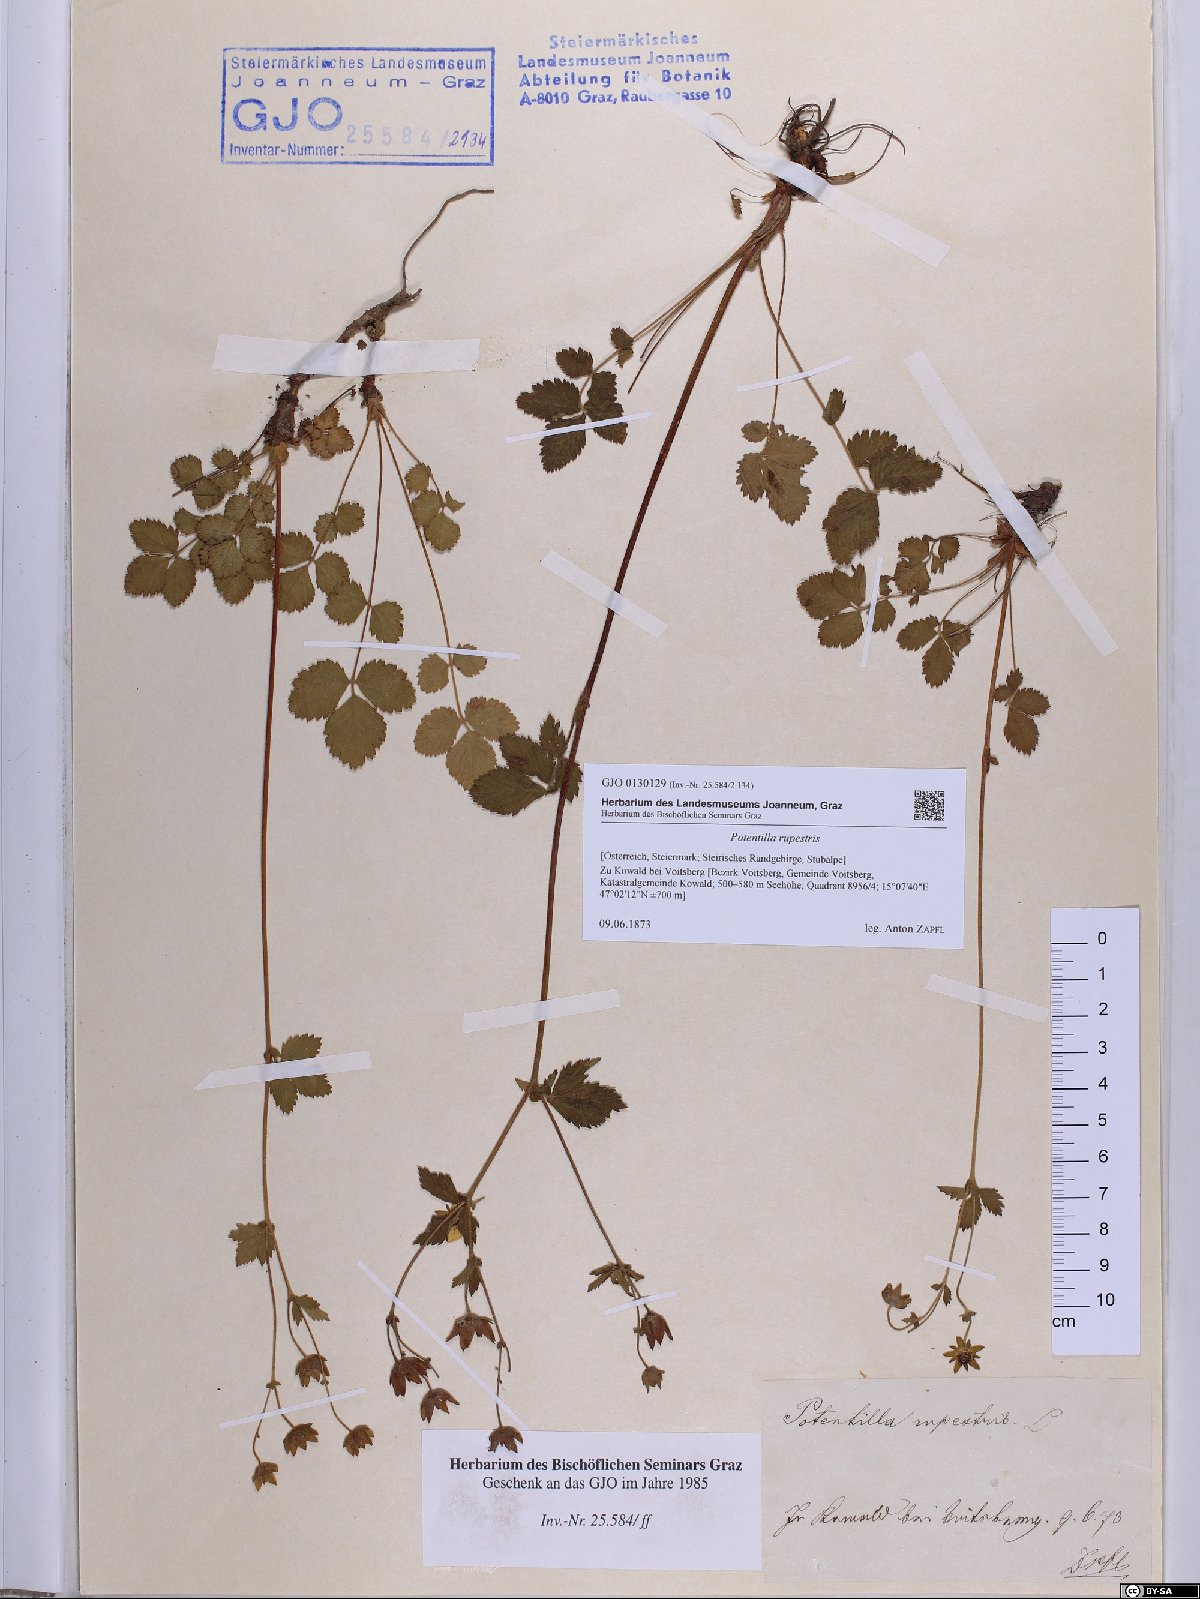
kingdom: Plantae
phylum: Tracheophyta
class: Magnoliopsida
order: Rosales
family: Rosaceae
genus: Drymocallis
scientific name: Drymocallis rupestris
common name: Rock cinquefoil
